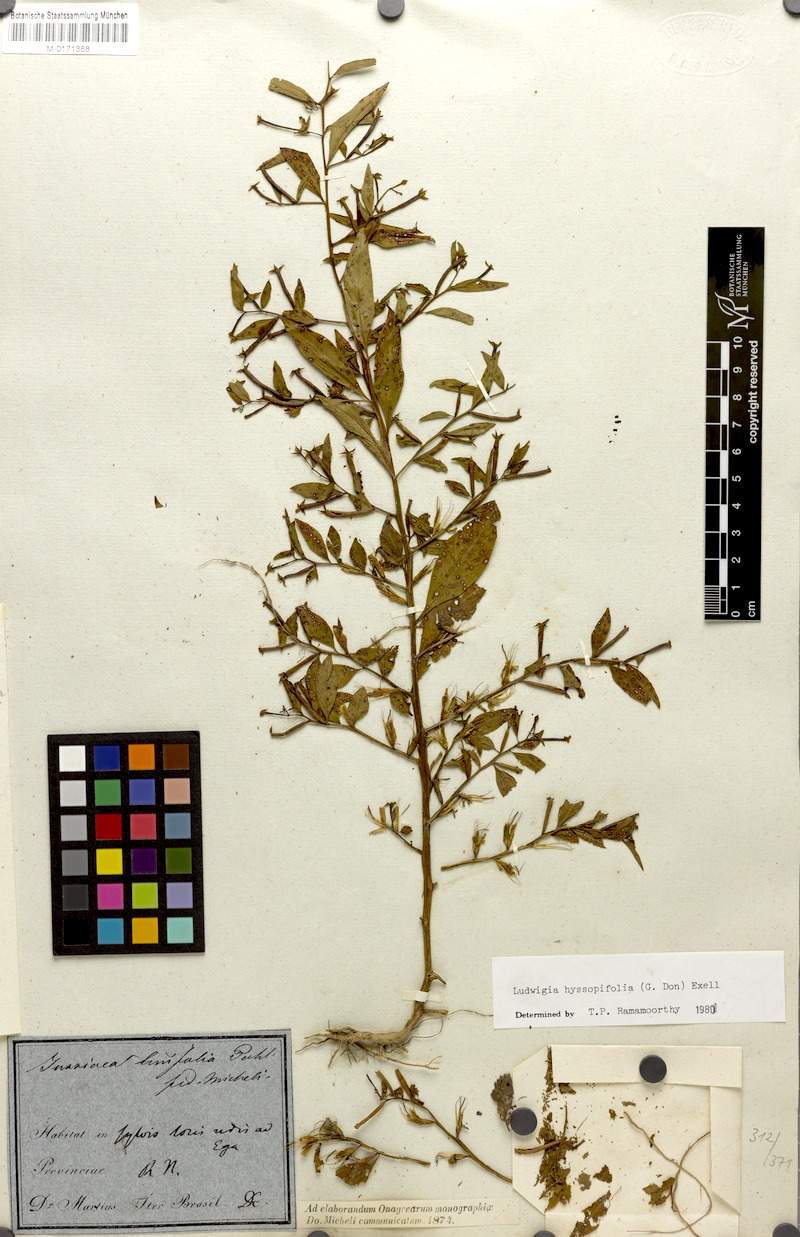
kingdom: Plantae
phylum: Tracheophyta
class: Magnoliopsida
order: Myrtales
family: Onagraceae
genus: Ludwigia
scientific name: Ludwigia hyssopifolia
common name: Linear leaf water primrose
